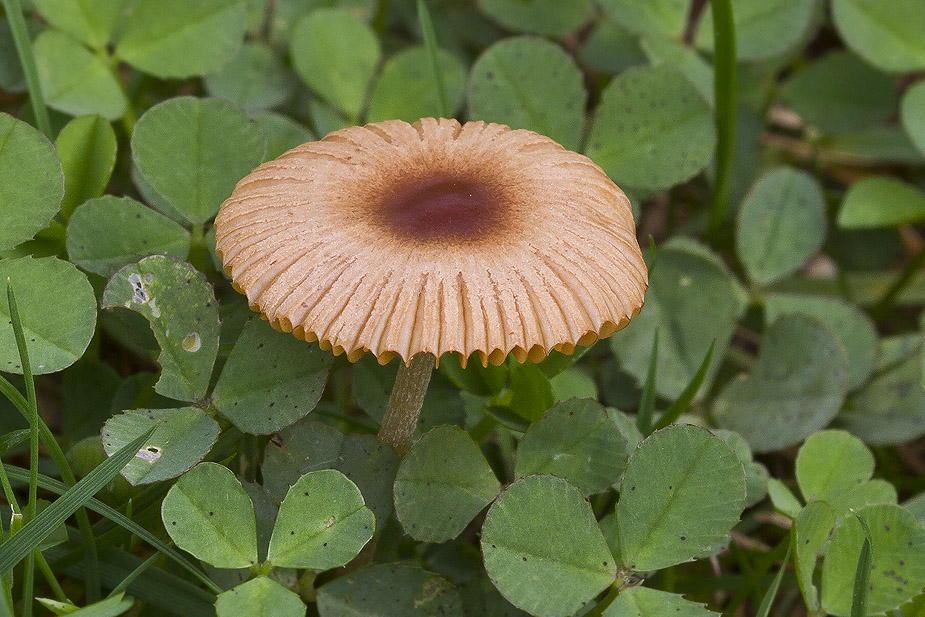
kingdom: Fungi
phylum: Basidiomycota
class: Agaricomycetes
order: Agaricales
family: Bolbitiaceae
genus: Pholiotina
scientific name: Pholiotina sulcata
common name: plisseret dansehat
